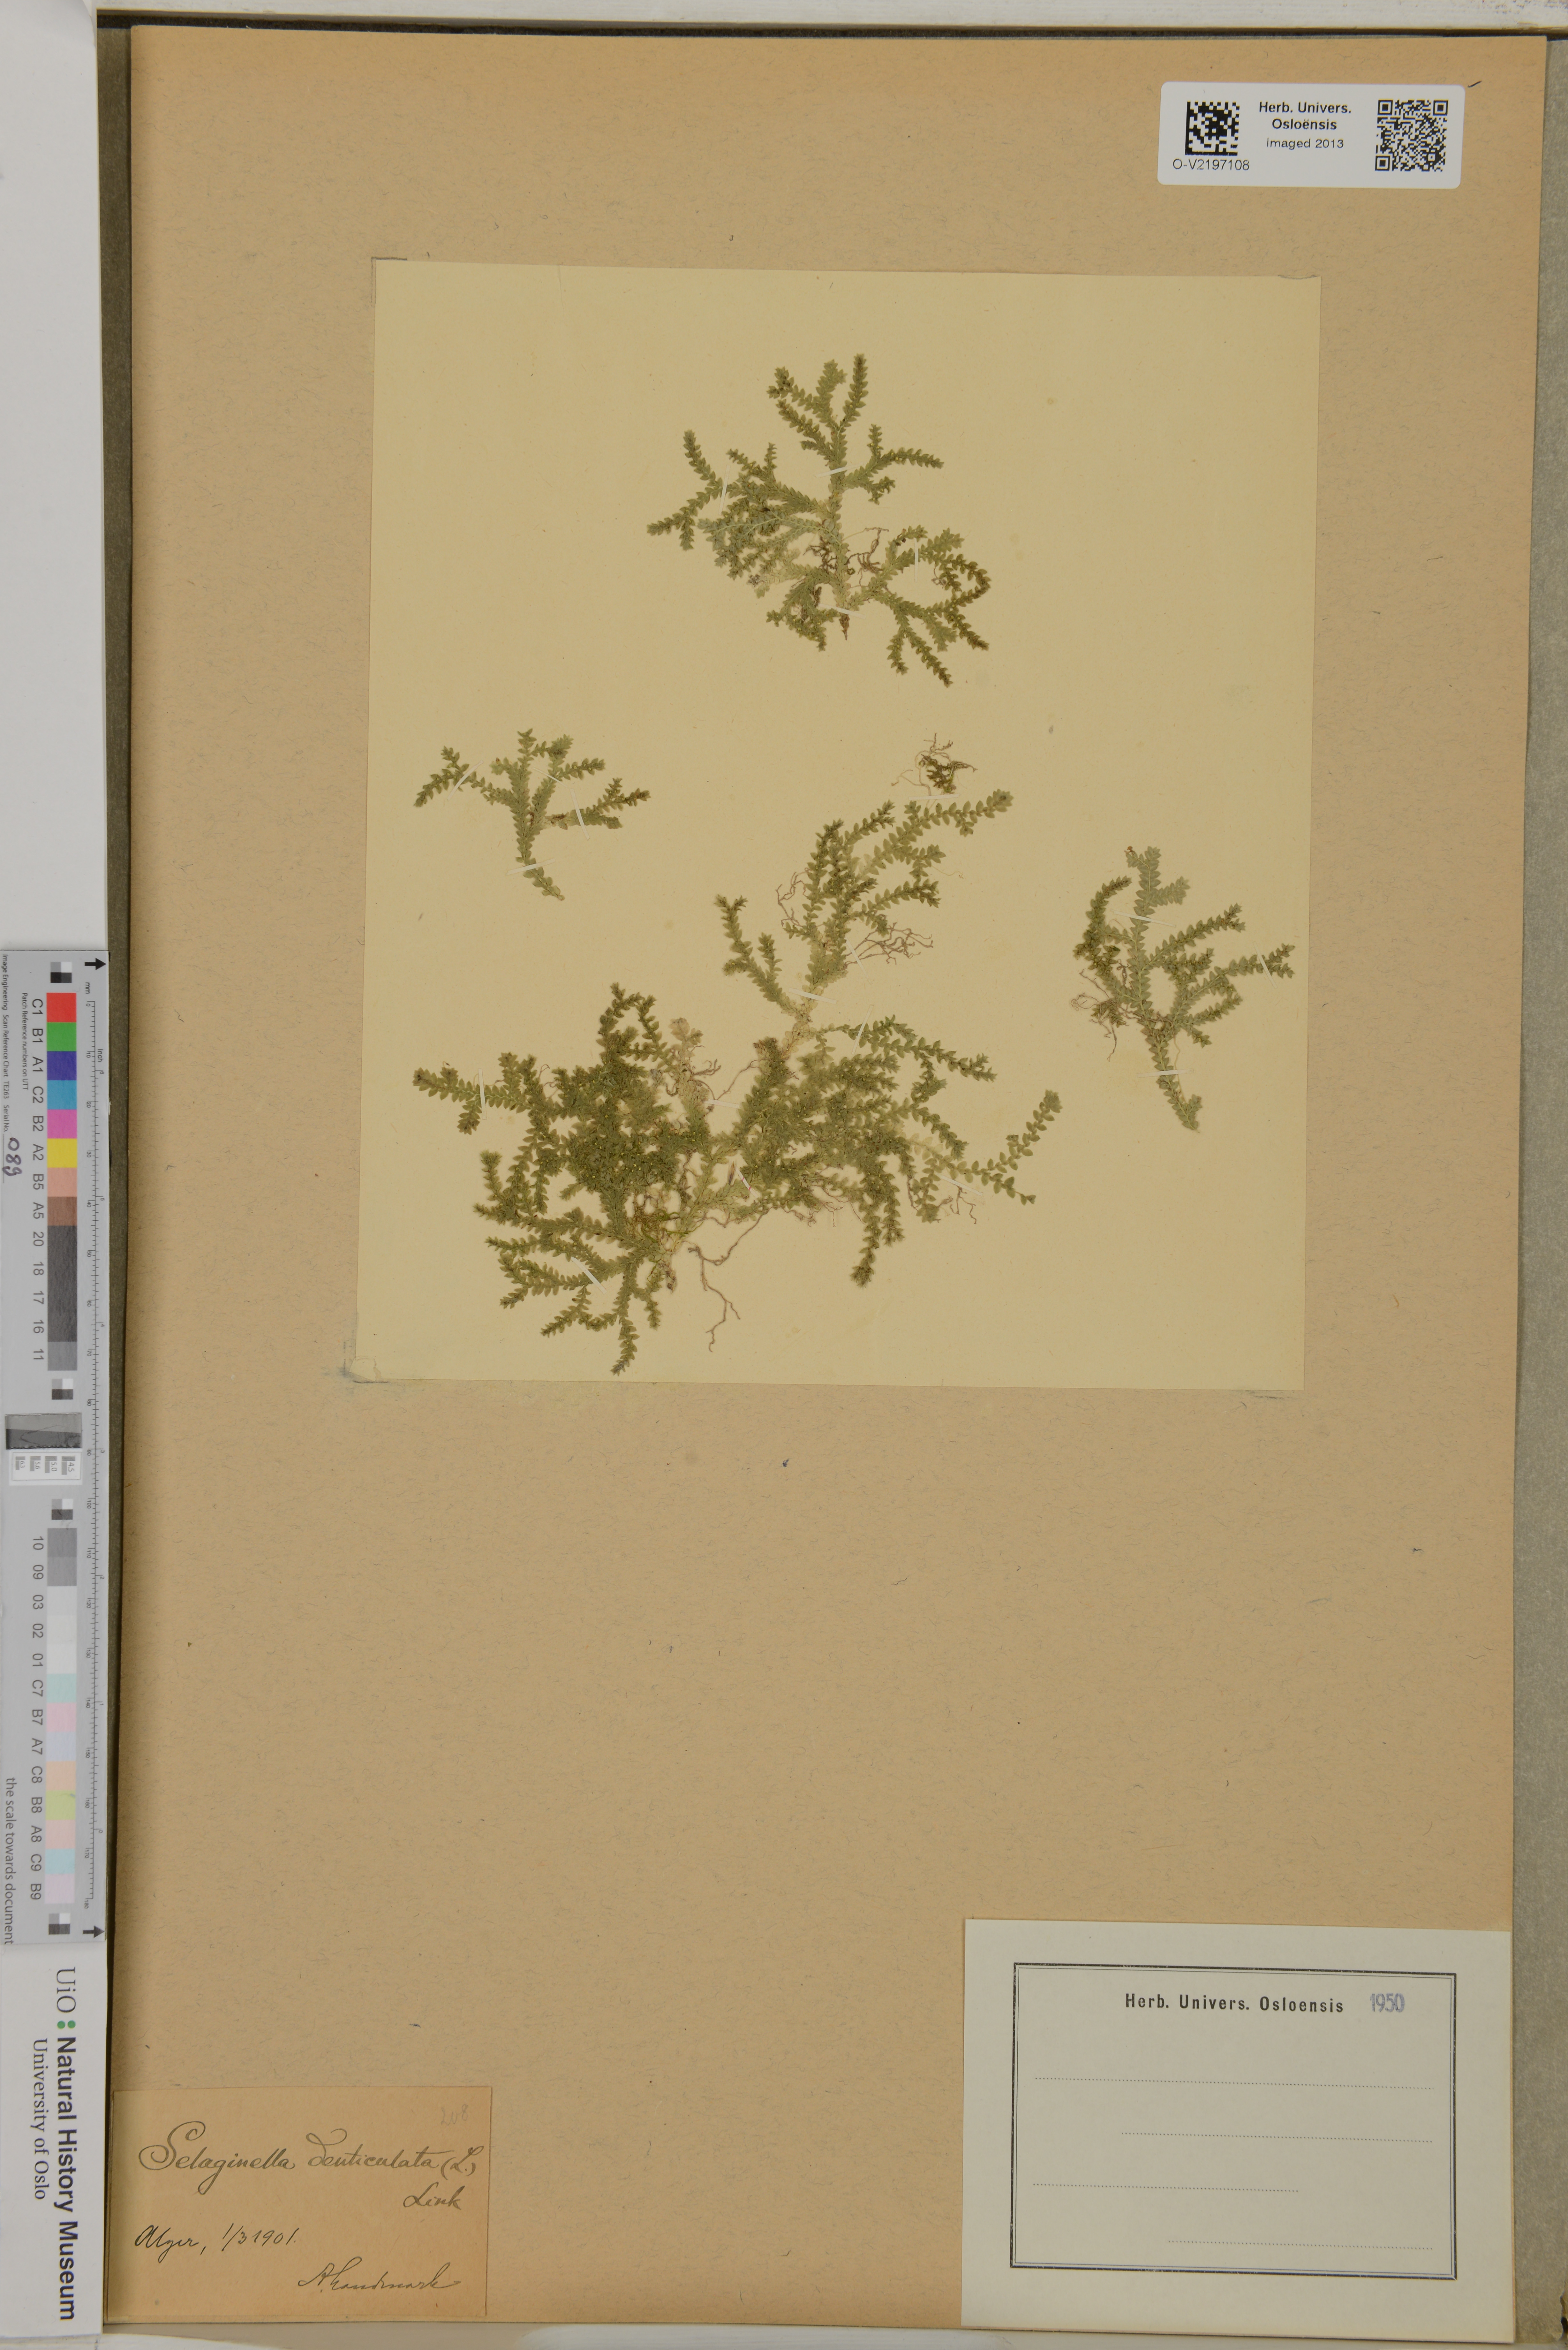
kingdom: Plantae
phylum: Tracheophyta
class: Lycopodiopsida
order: Selaginellales
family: Selaginellaceae
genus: Selaginella
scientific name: Selaginella denticulata
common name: Toothed-leaved clubmoss
